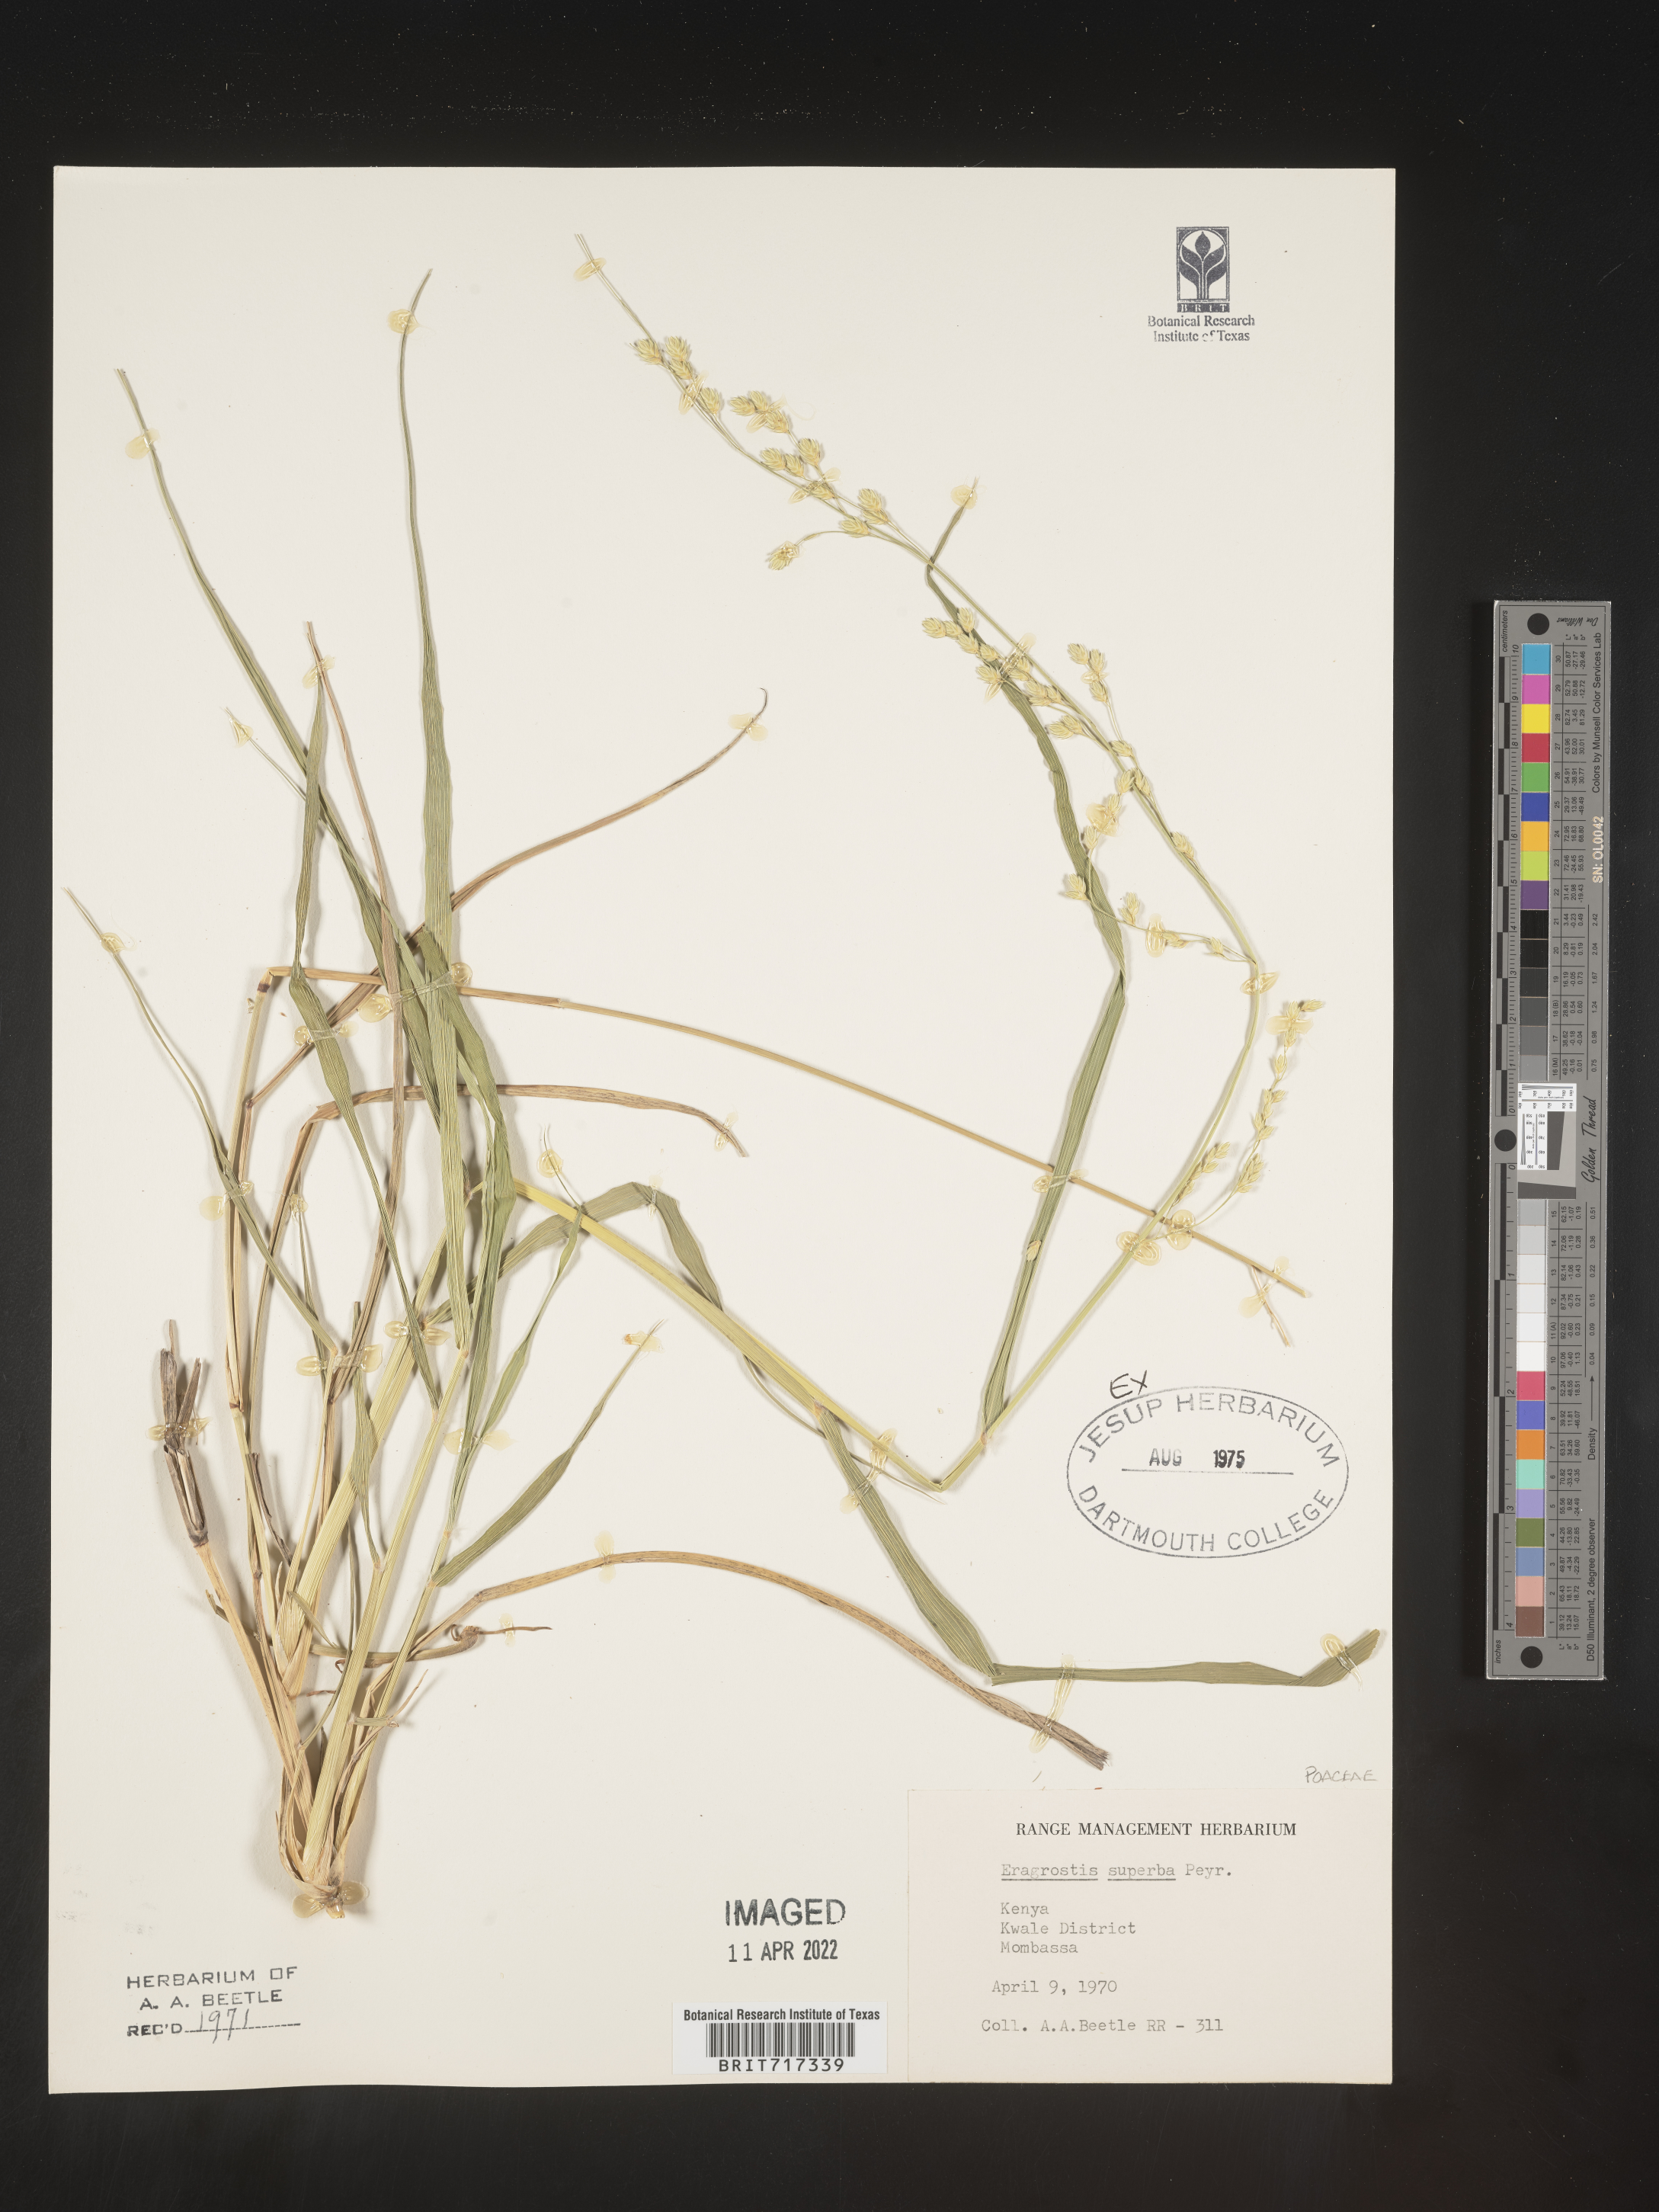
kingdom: Plantae
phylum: Tracheophyta
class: Liliopsida
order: Poales
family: Poaceae
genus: Eragrostis
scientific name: Eragrostis
